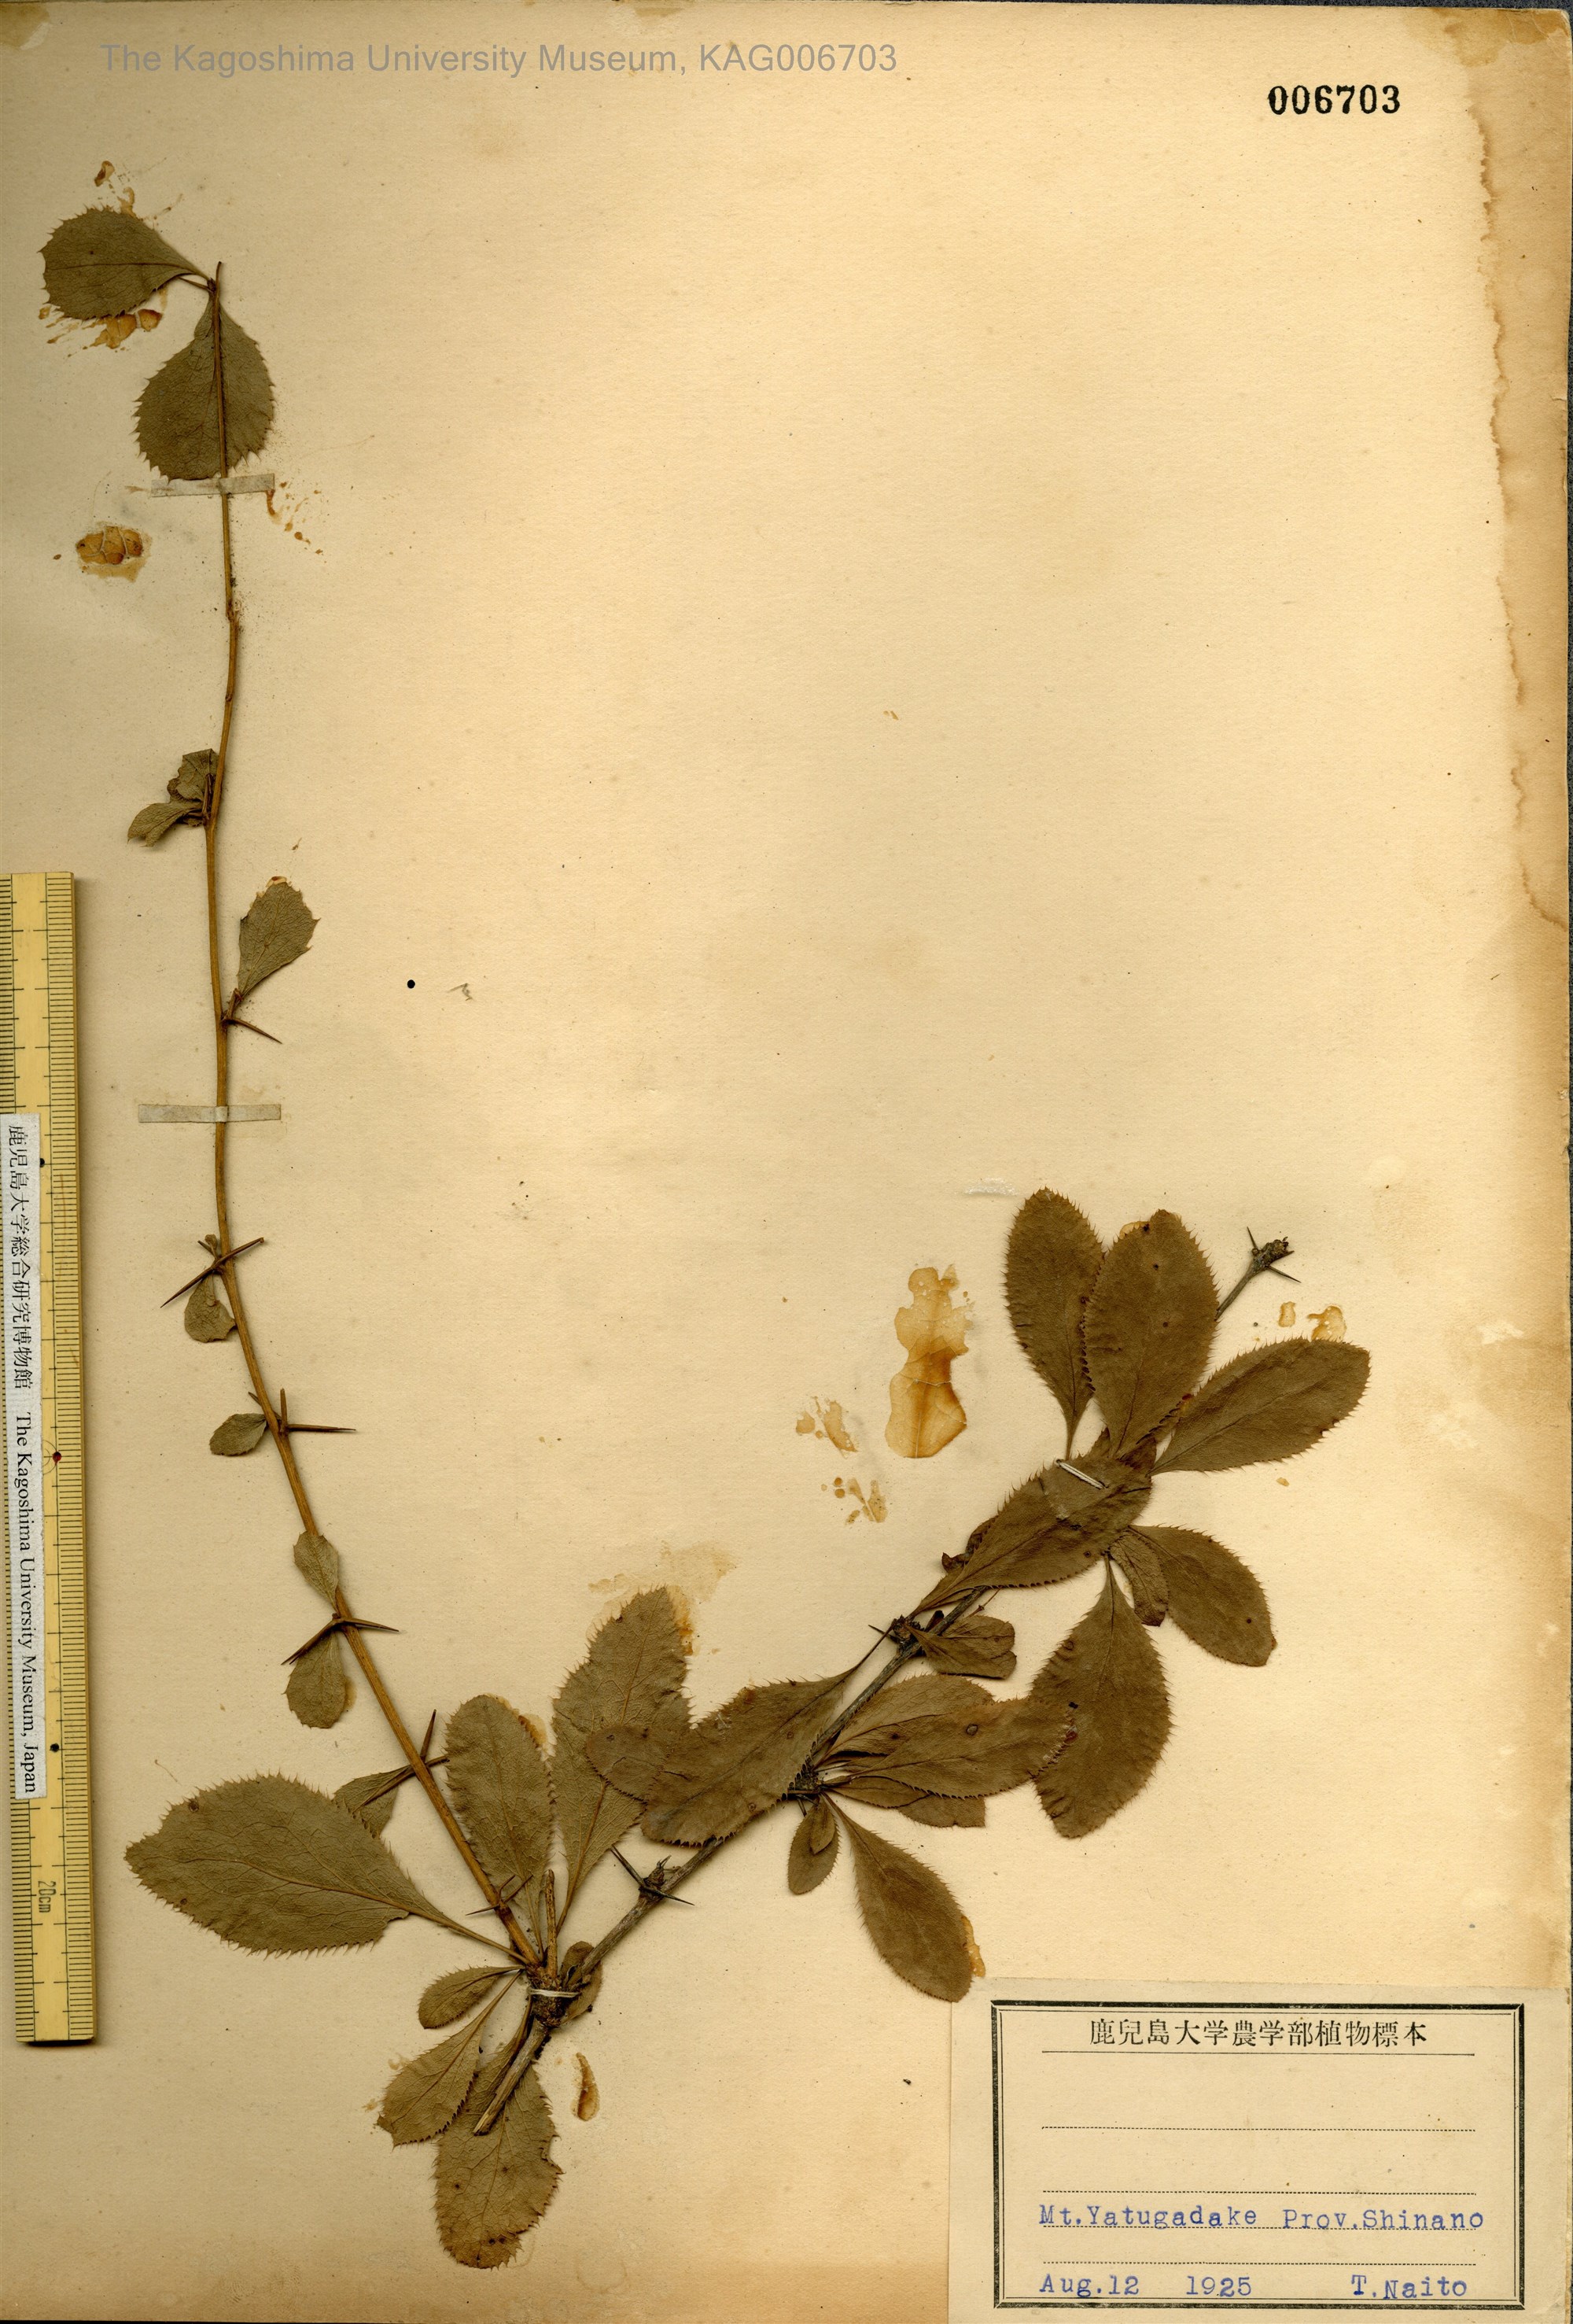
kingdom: Plantae
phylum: Tracheophyta
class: Magnoliopsida
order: Ranunculales
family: Berberidaceae
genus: Berberis
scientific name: Berberis amurensis
